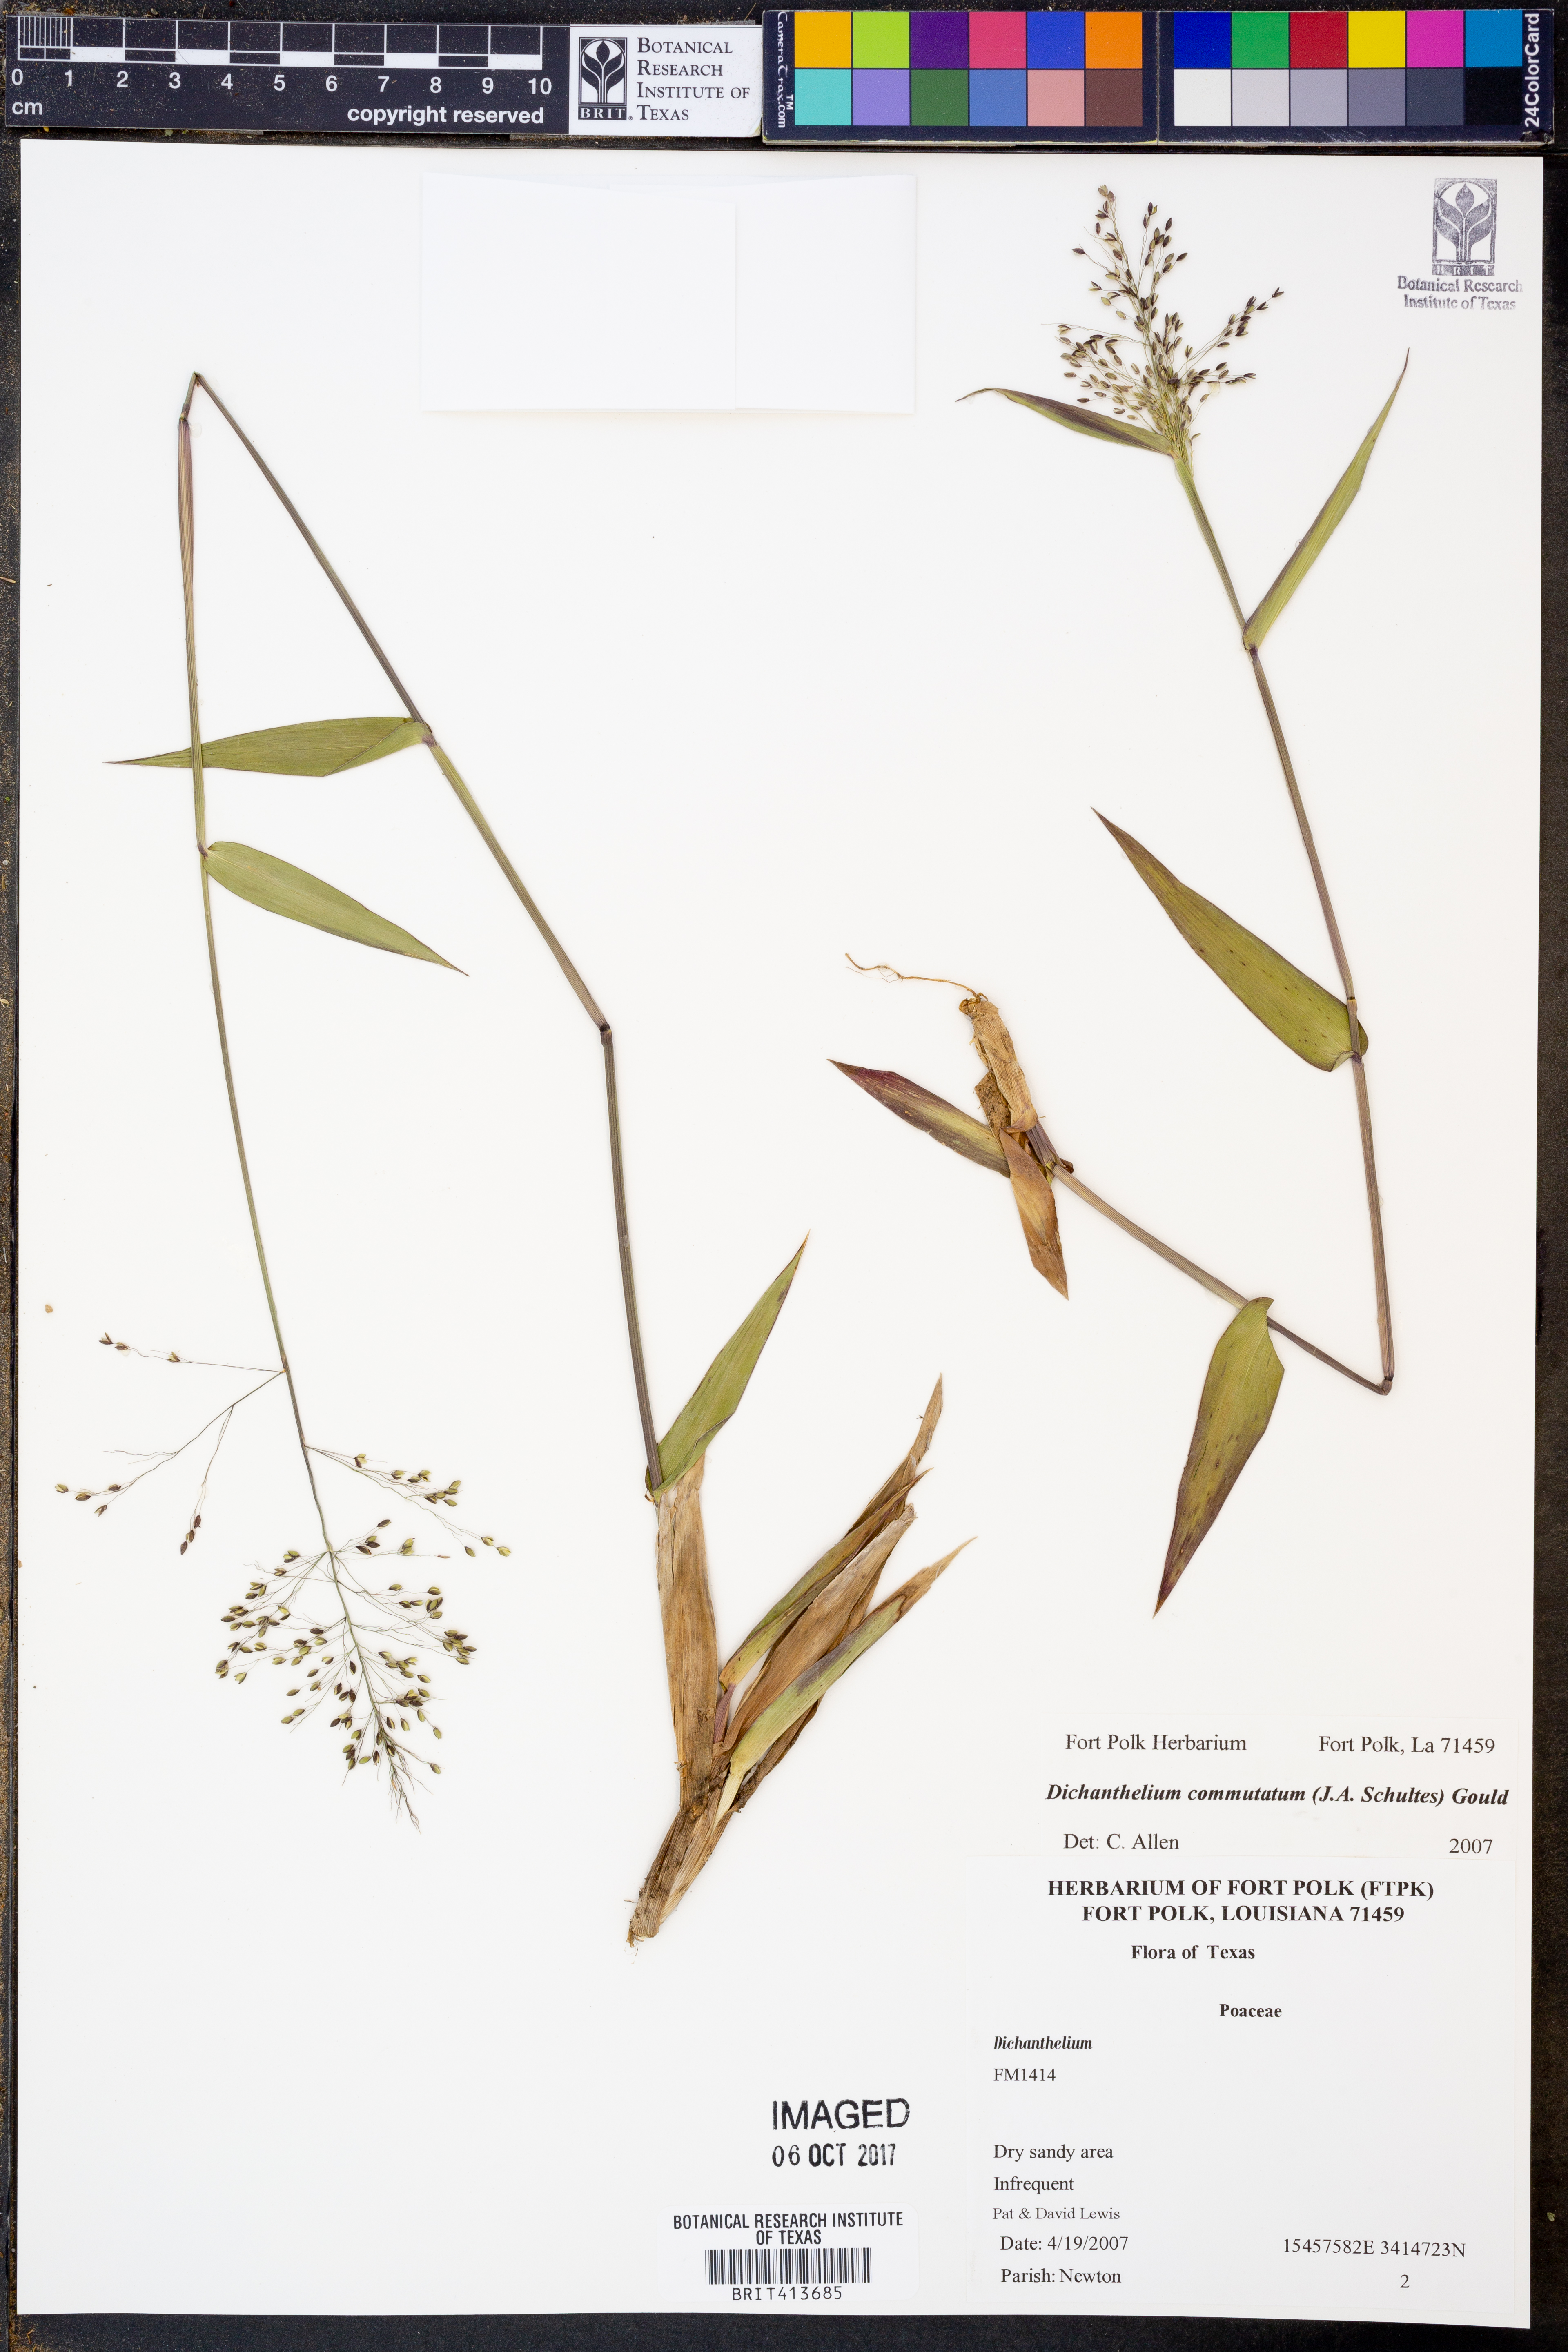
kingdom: Plantae
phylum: Tracheophyta
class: Liliopsida
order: Poales
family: Poaceae
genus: Dichanthelium
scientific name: Dichanthelium commutatum
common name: Variable witchgrass
